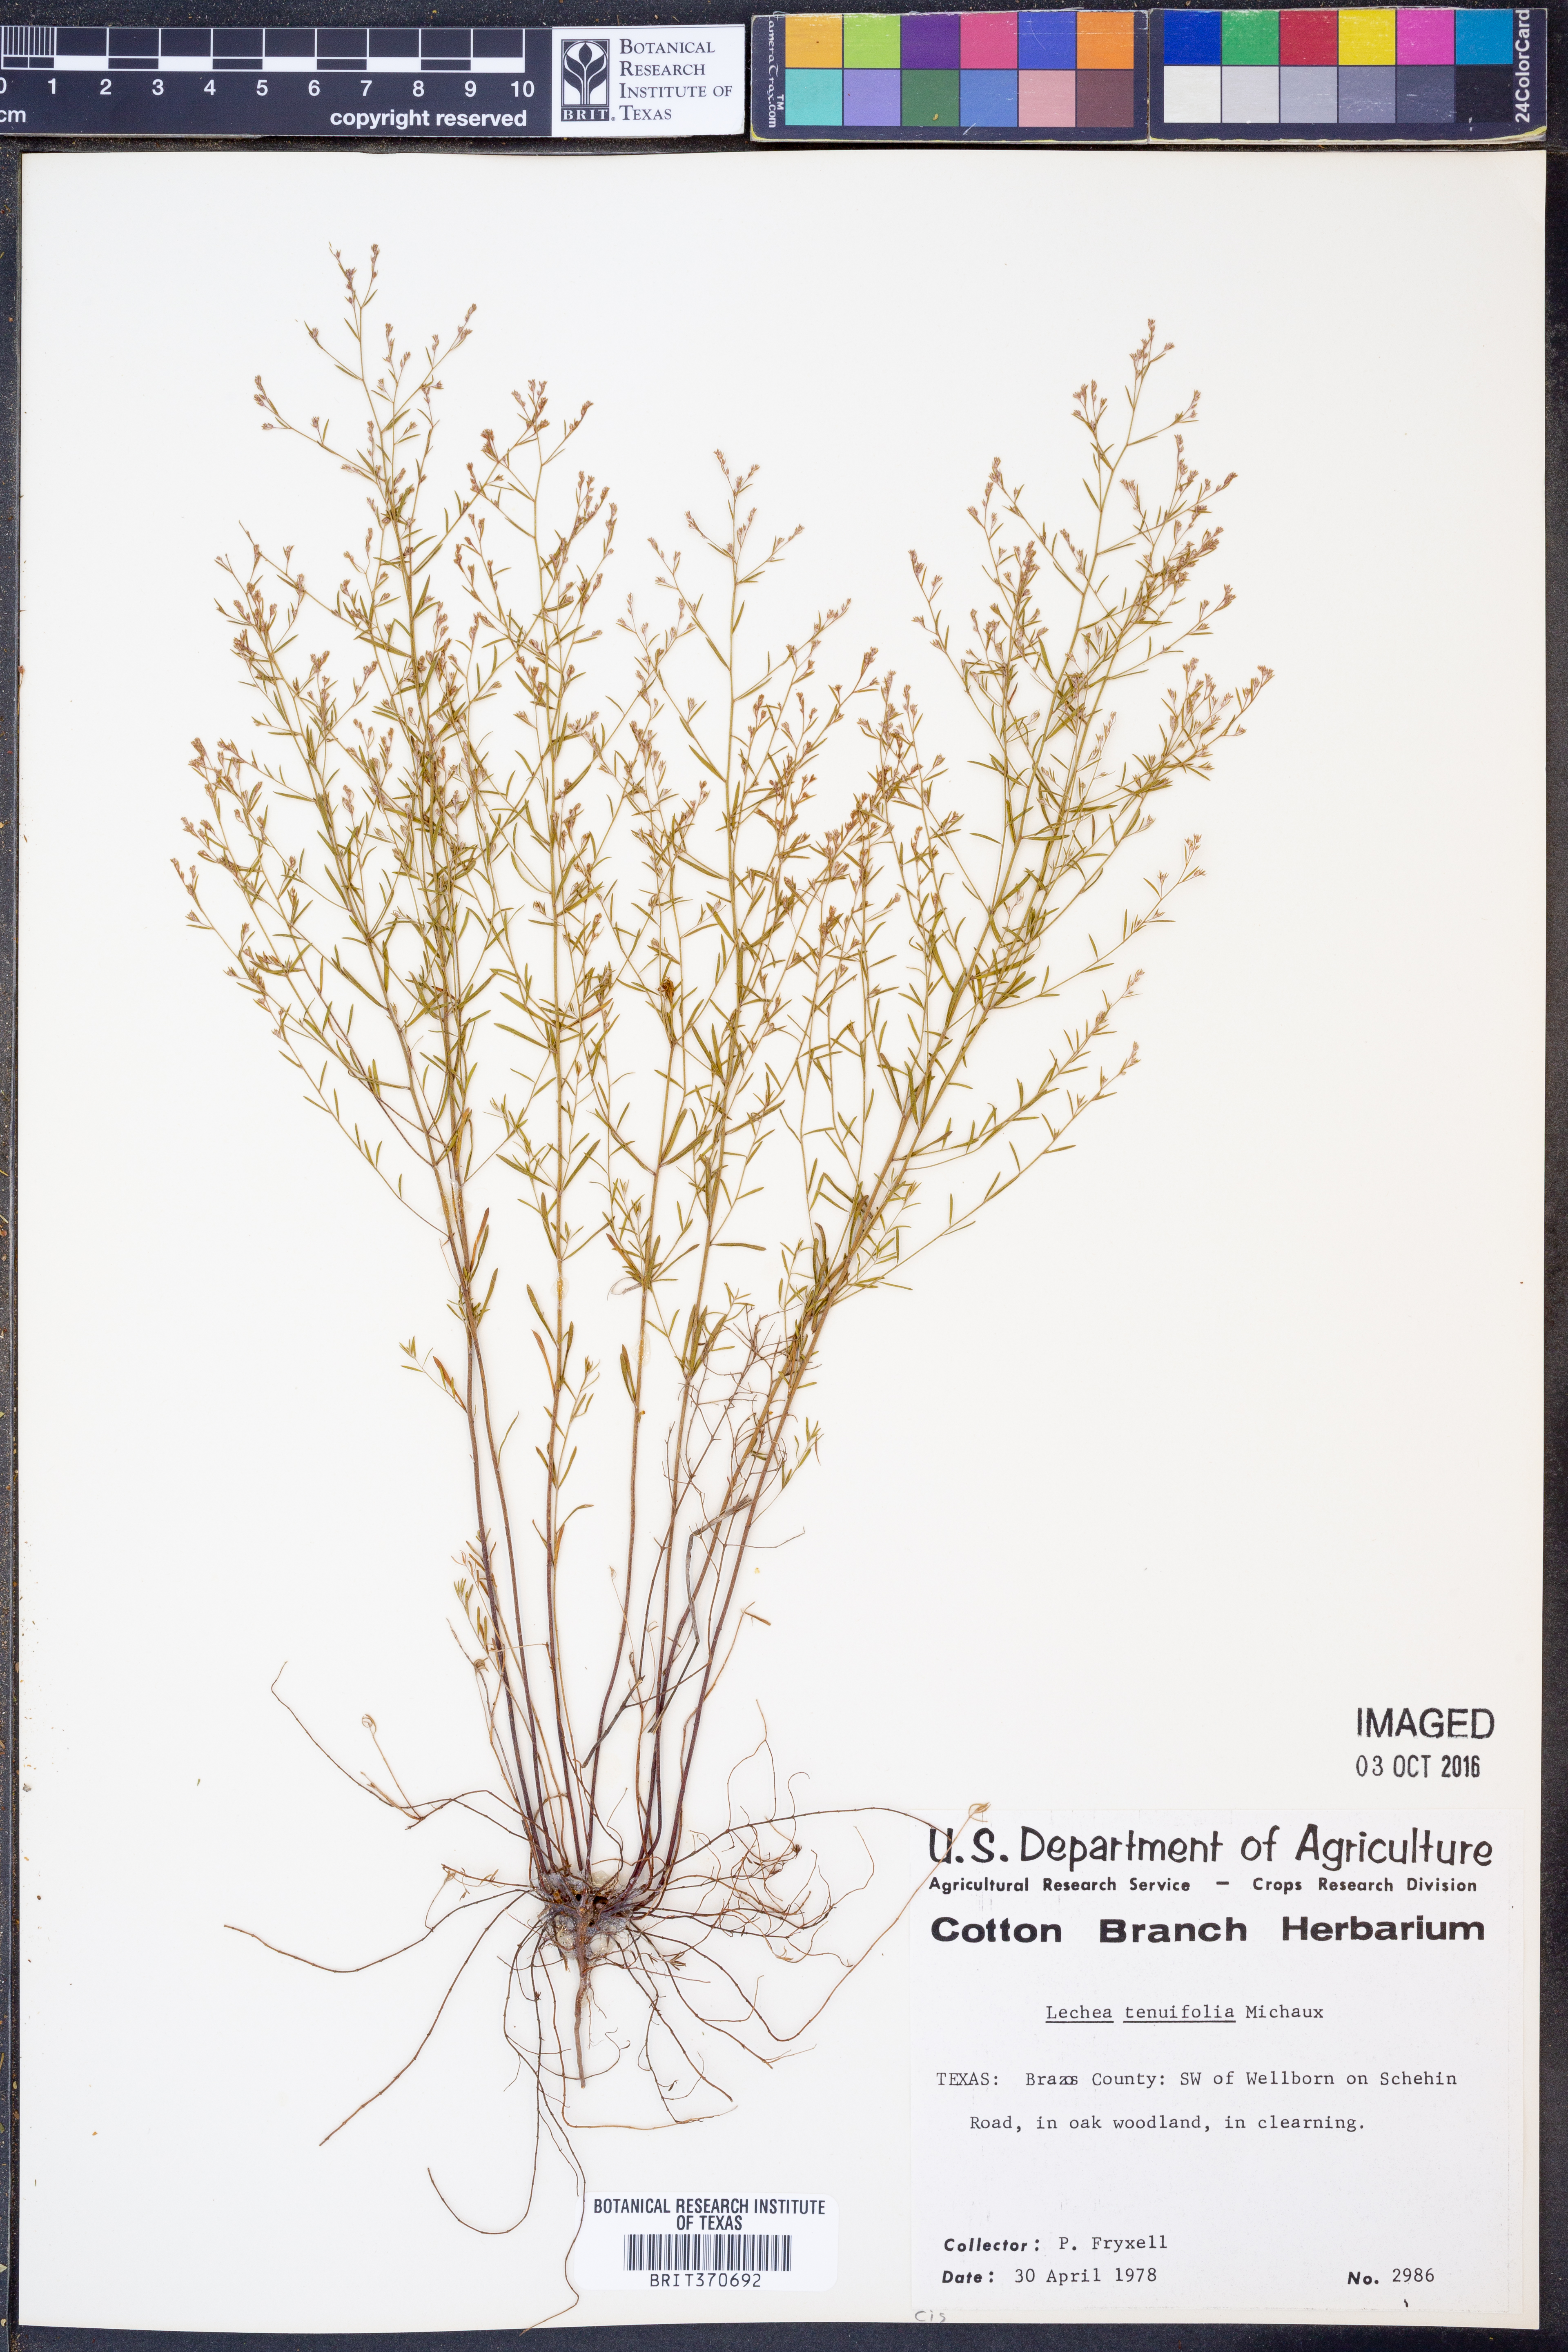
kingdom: Plantae
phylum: Tracheophyta
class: Magnoliopsida
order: Malvales
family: Cistaceae
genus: Lechea
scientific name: Lechea tenuifolia
